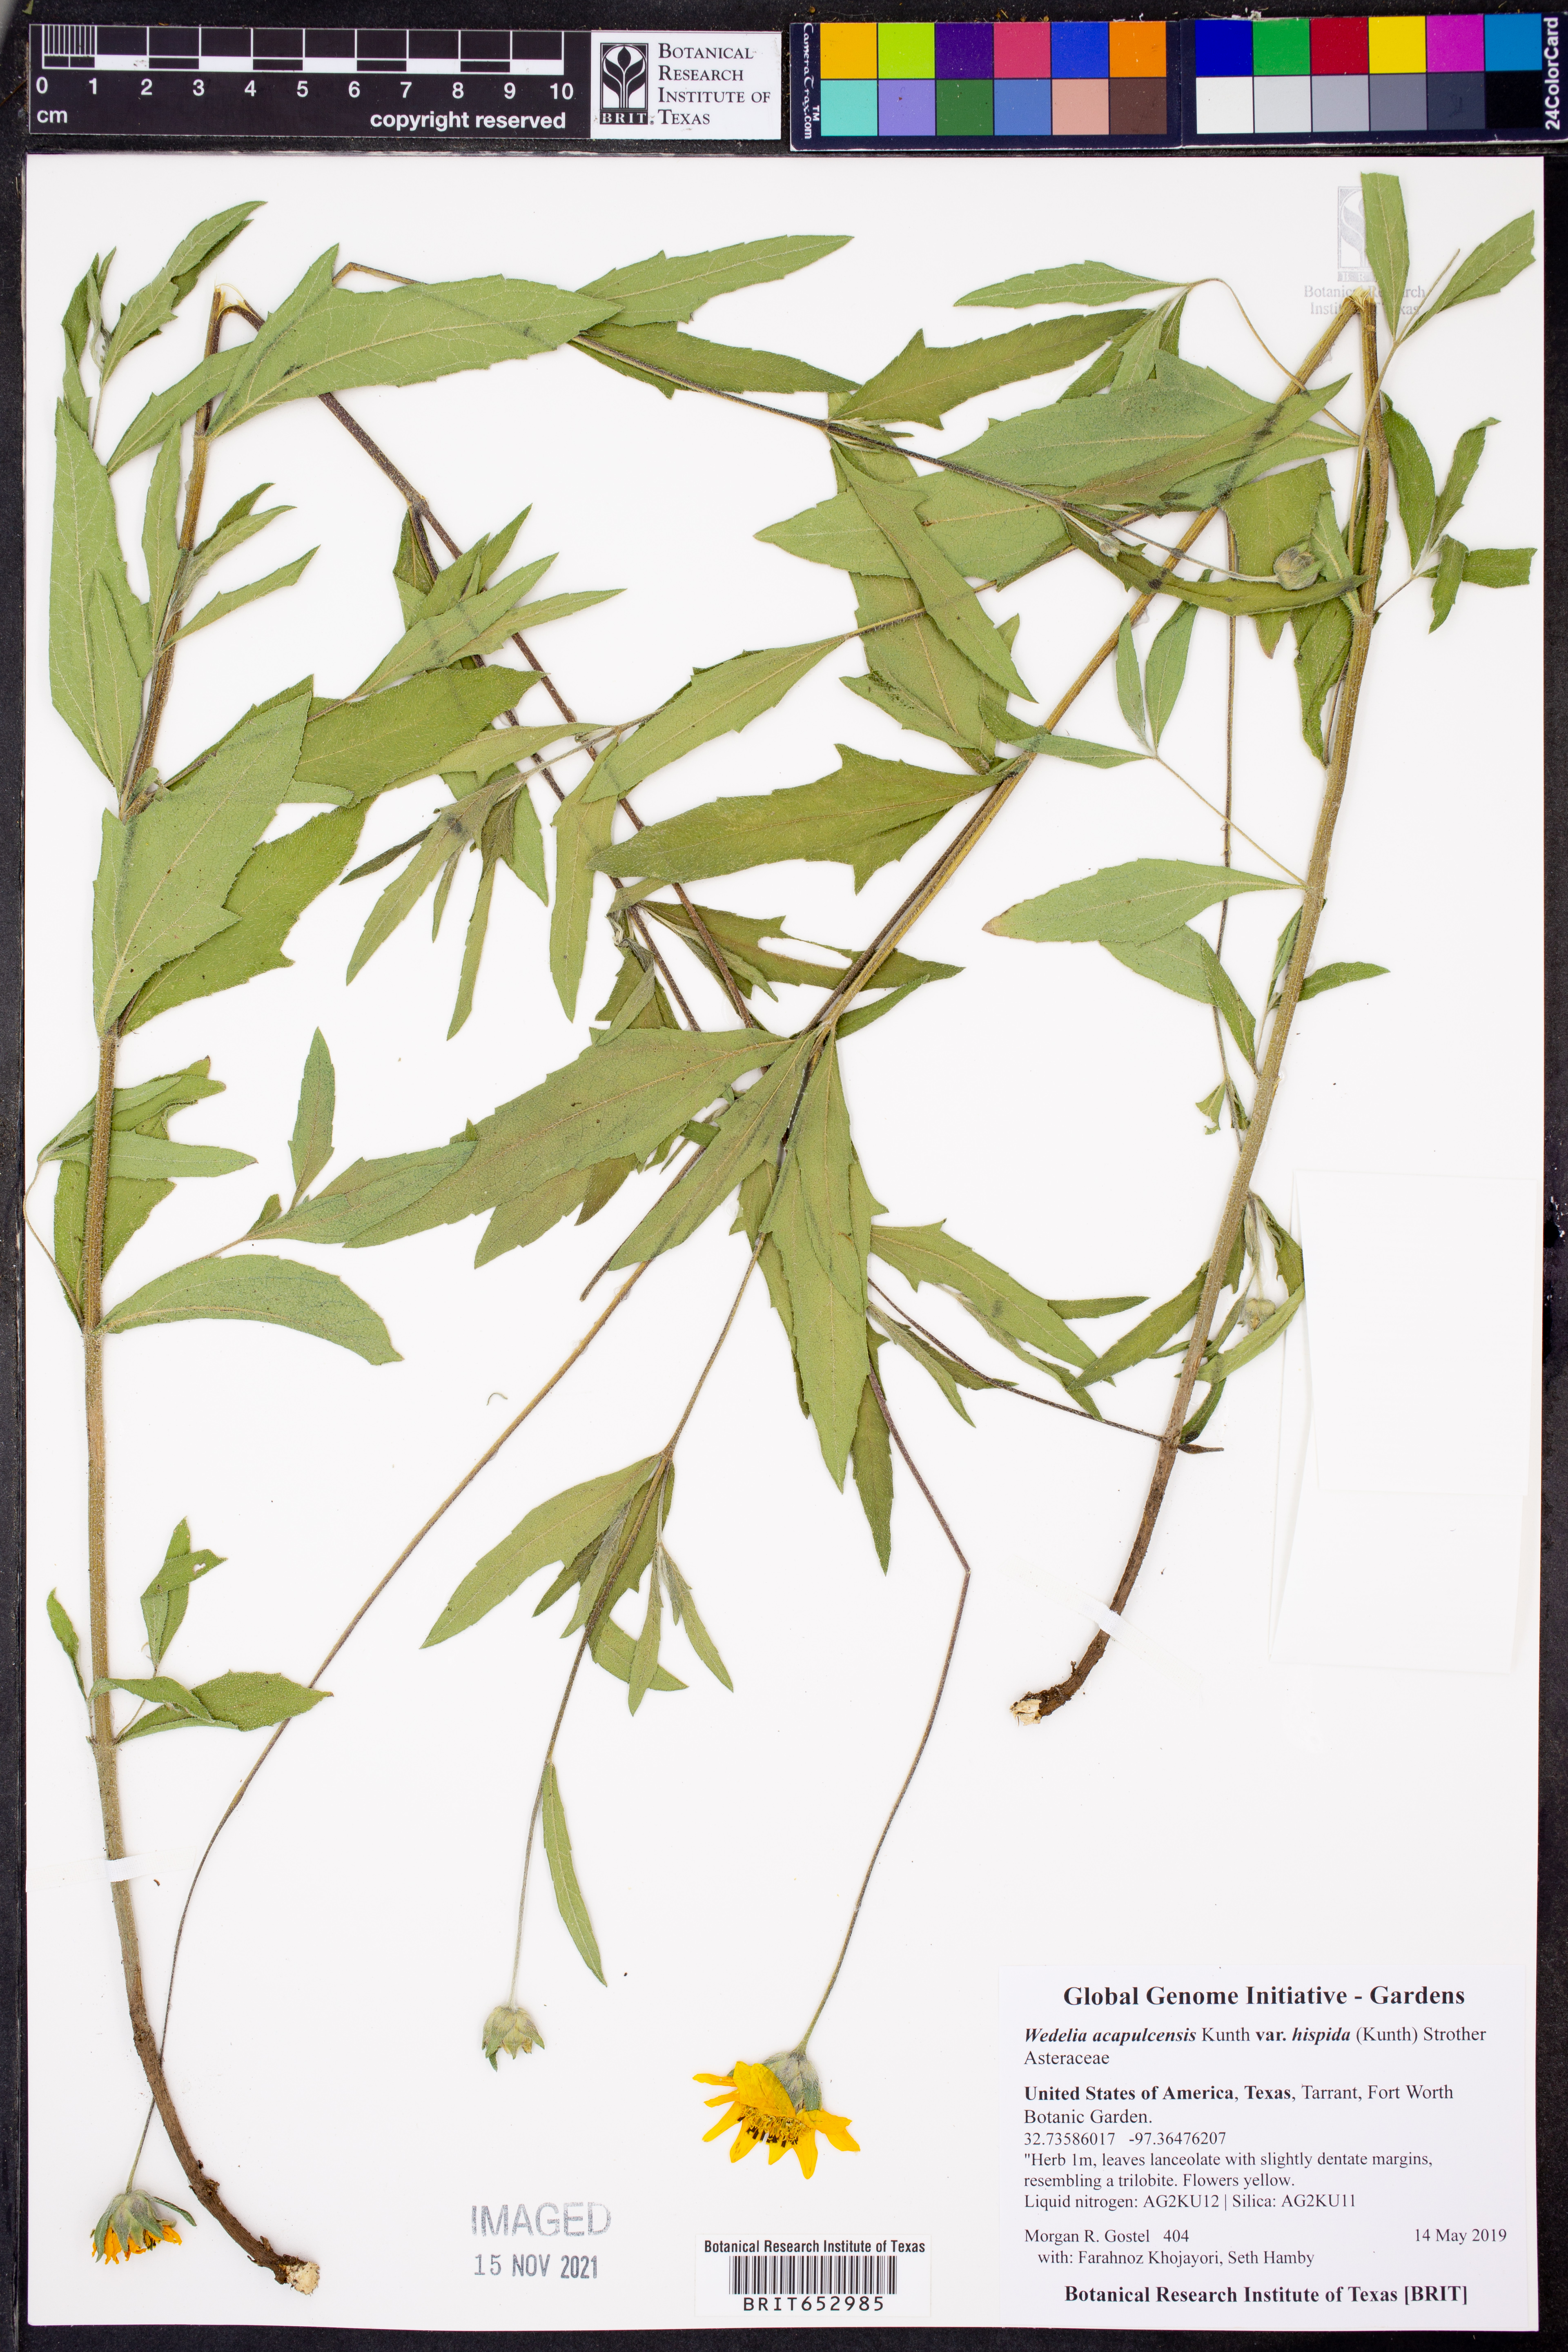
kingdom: Plantae
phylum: Tracheophyta
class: Magnoliopsida
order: Asterales
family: Asteraceae
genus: Wedelia
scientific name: Wedelia acapulcensis
